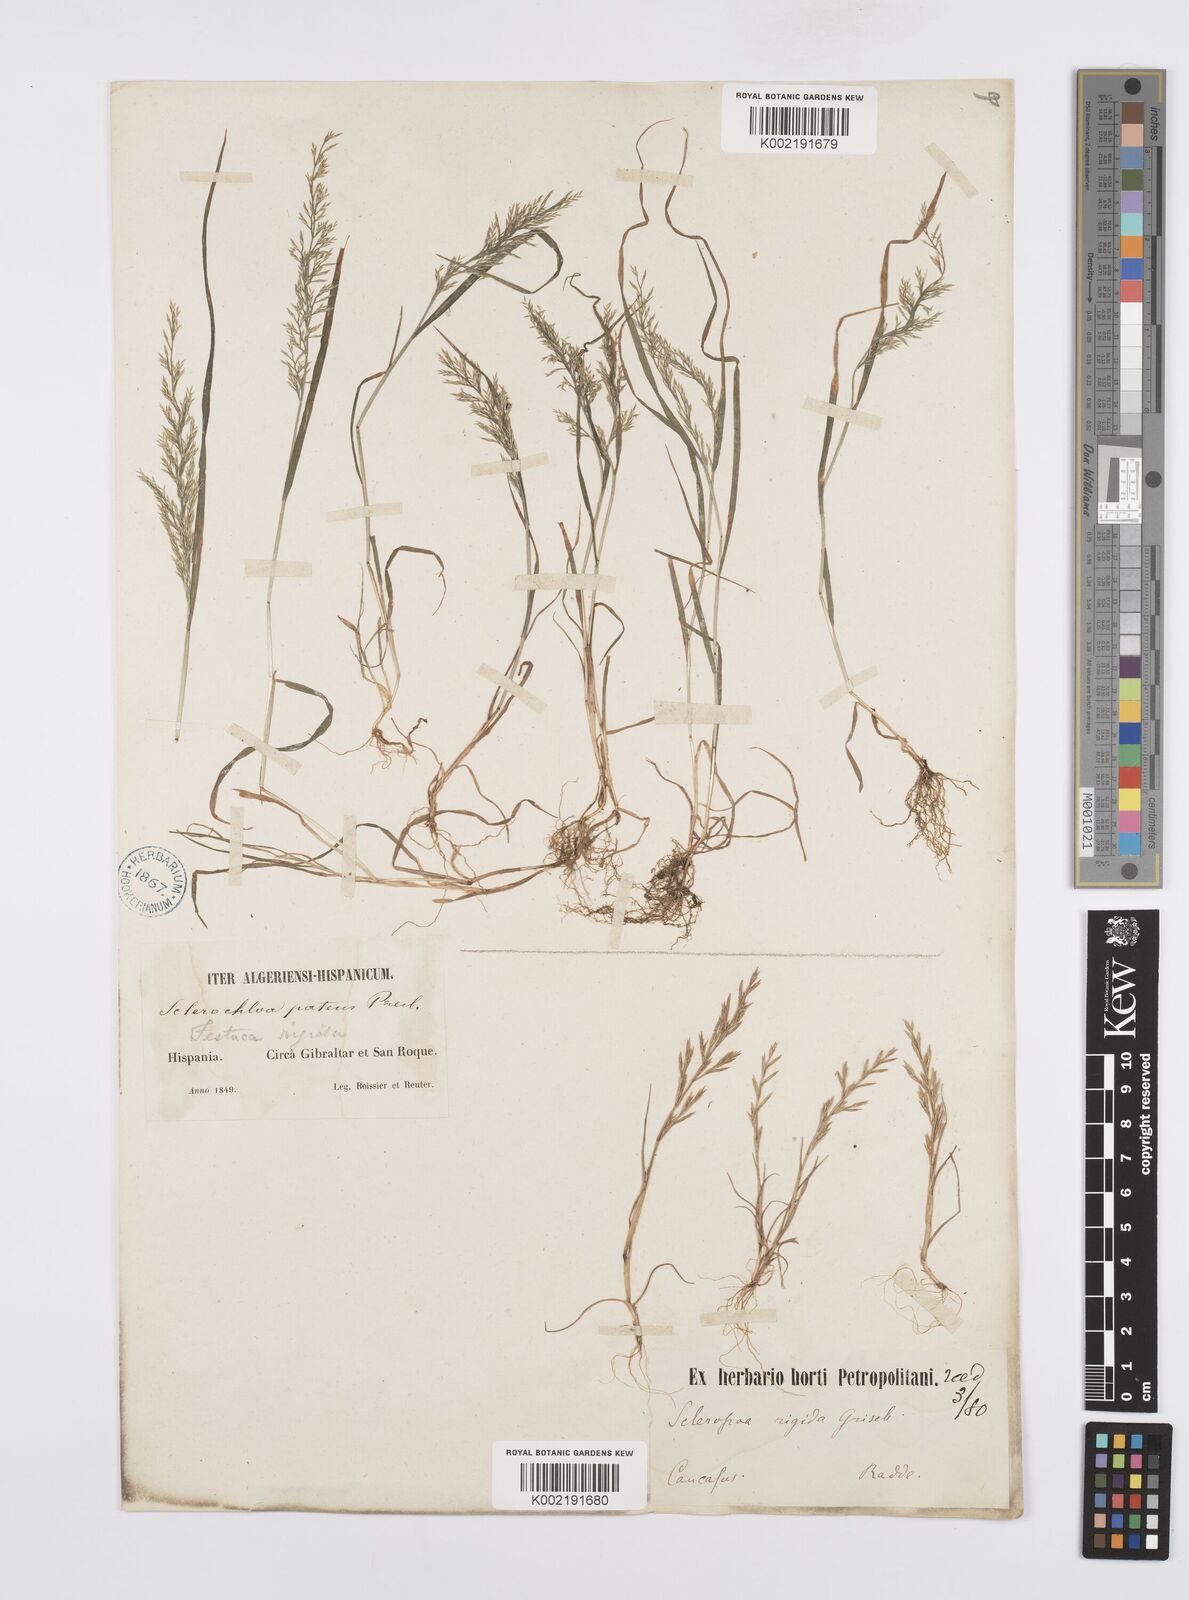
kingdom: Plantae
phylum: Tracheophyta
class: Liliopsida
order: Poales
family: Poaceae
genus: Catapodium
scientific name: Catapodium rigidum
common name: Fern-grass
